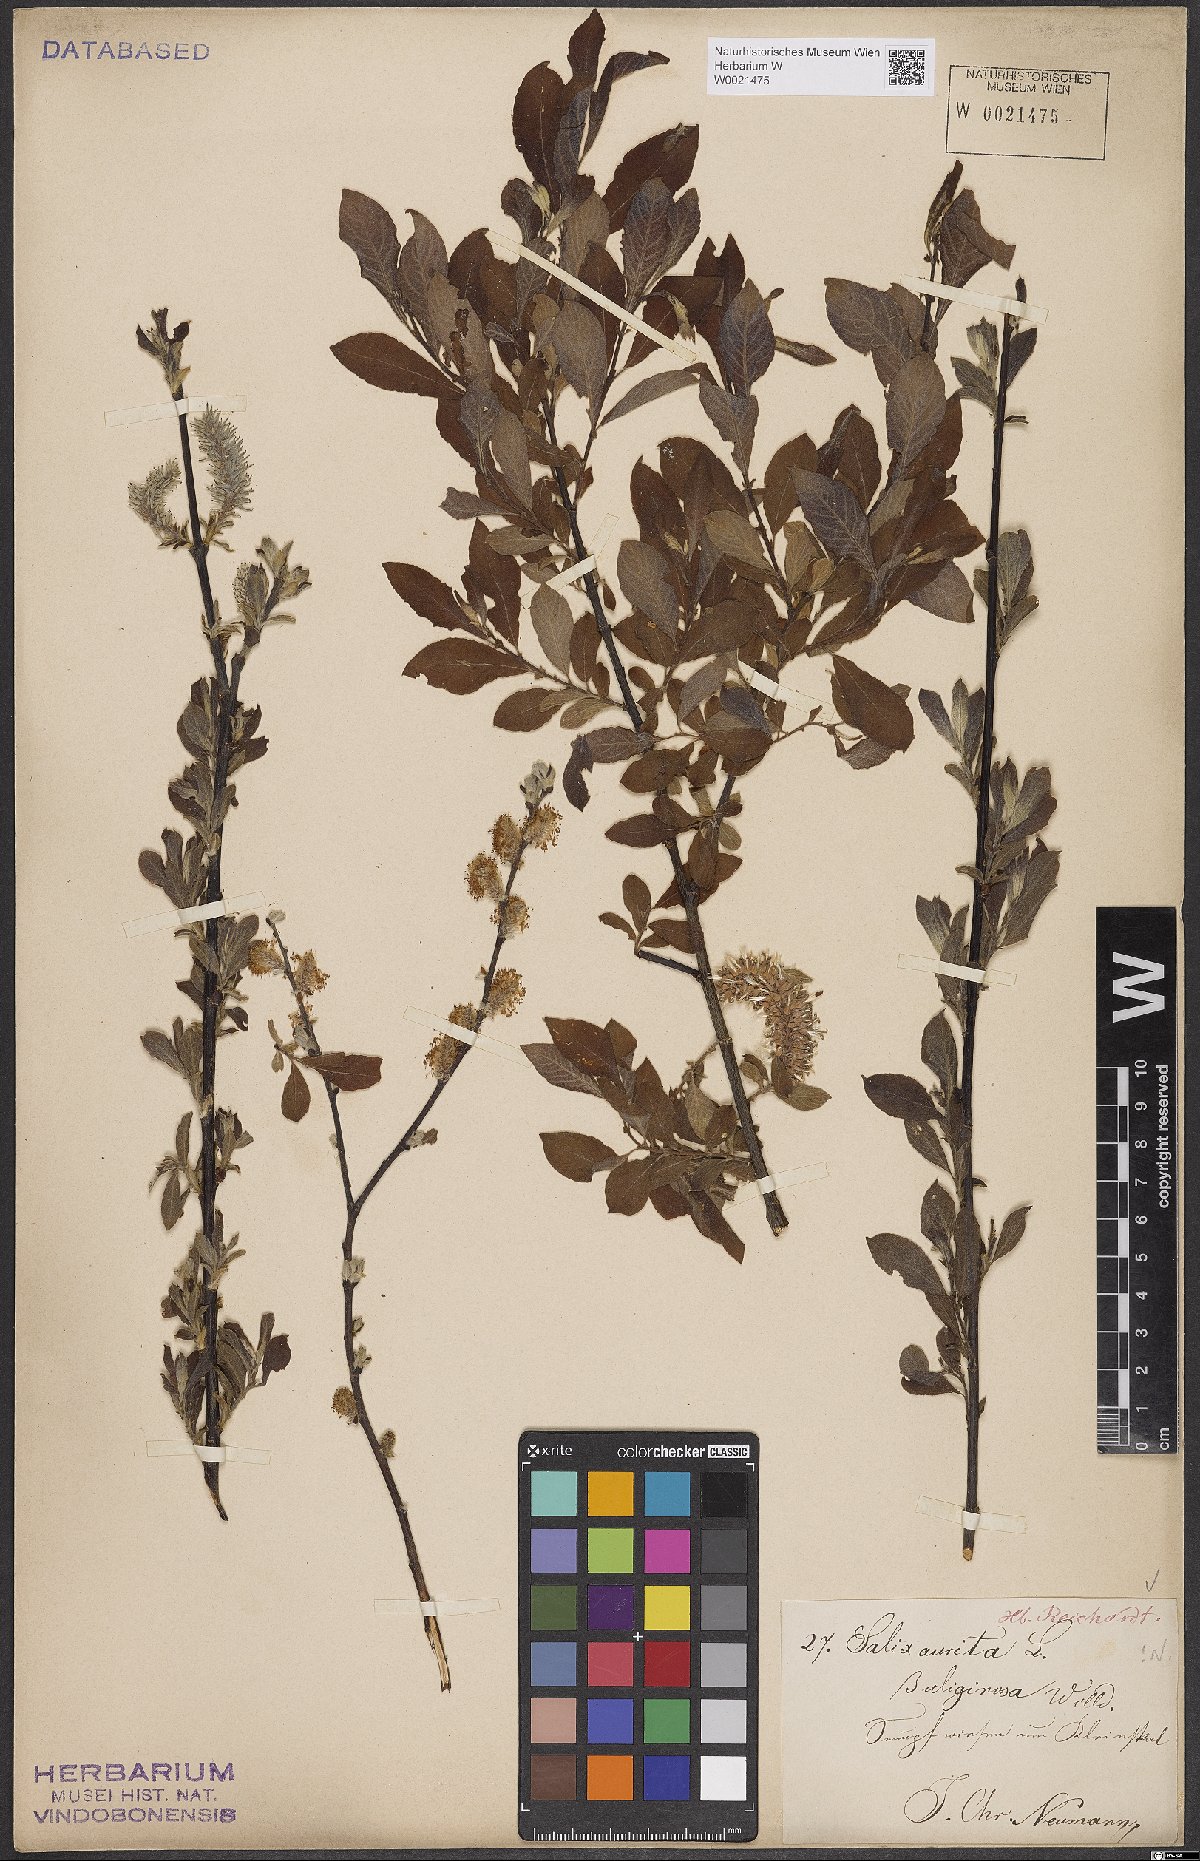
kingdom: Plantae
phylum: Tracheophyta
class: Magnoliopsida
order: Malpighiales
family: Salicaceae
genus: Salix
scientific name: Salix aurita
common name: Eared willow
